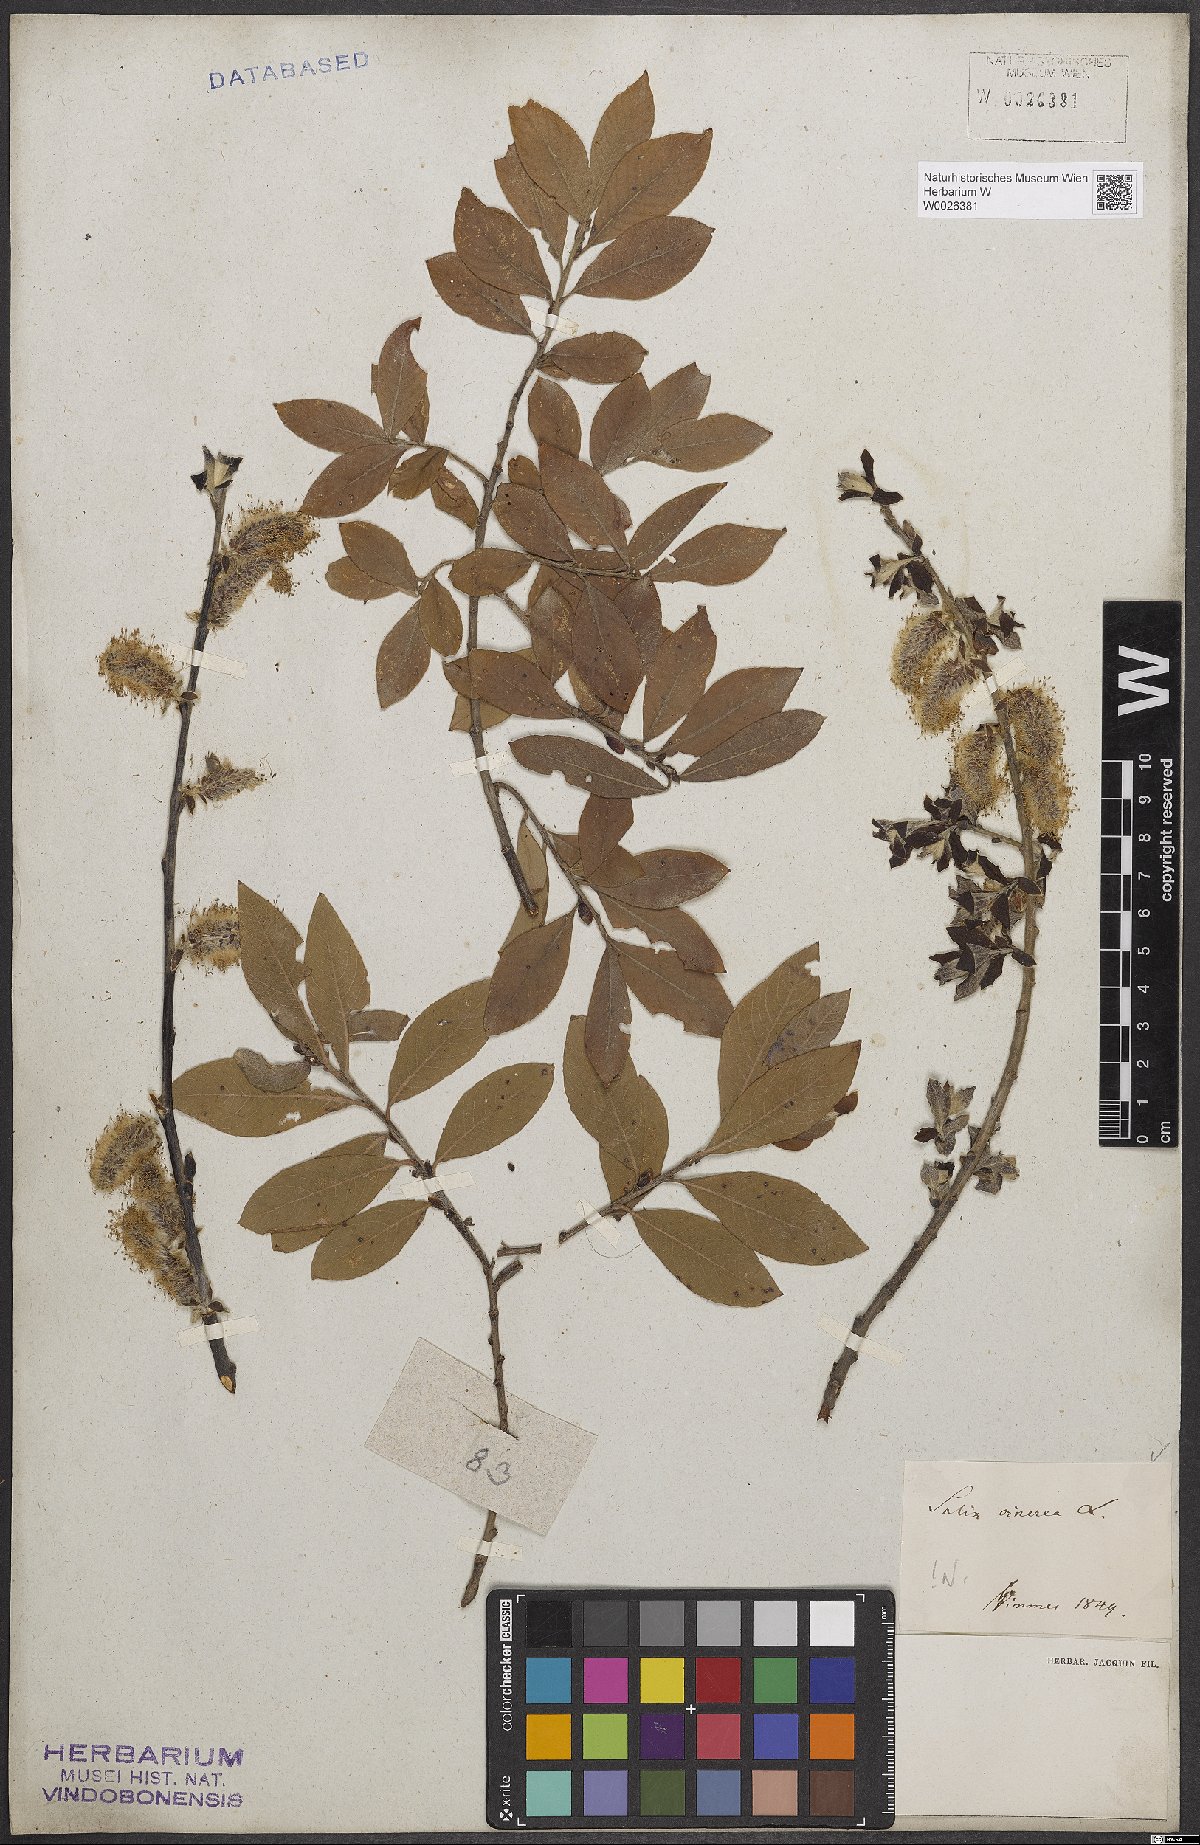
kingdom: Plantae
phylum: Tracheophyta
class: Magnoliopsida
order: Malpighiales
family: Salicaceae
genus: Salix
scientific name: Salix cinerea
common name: Common sallow
